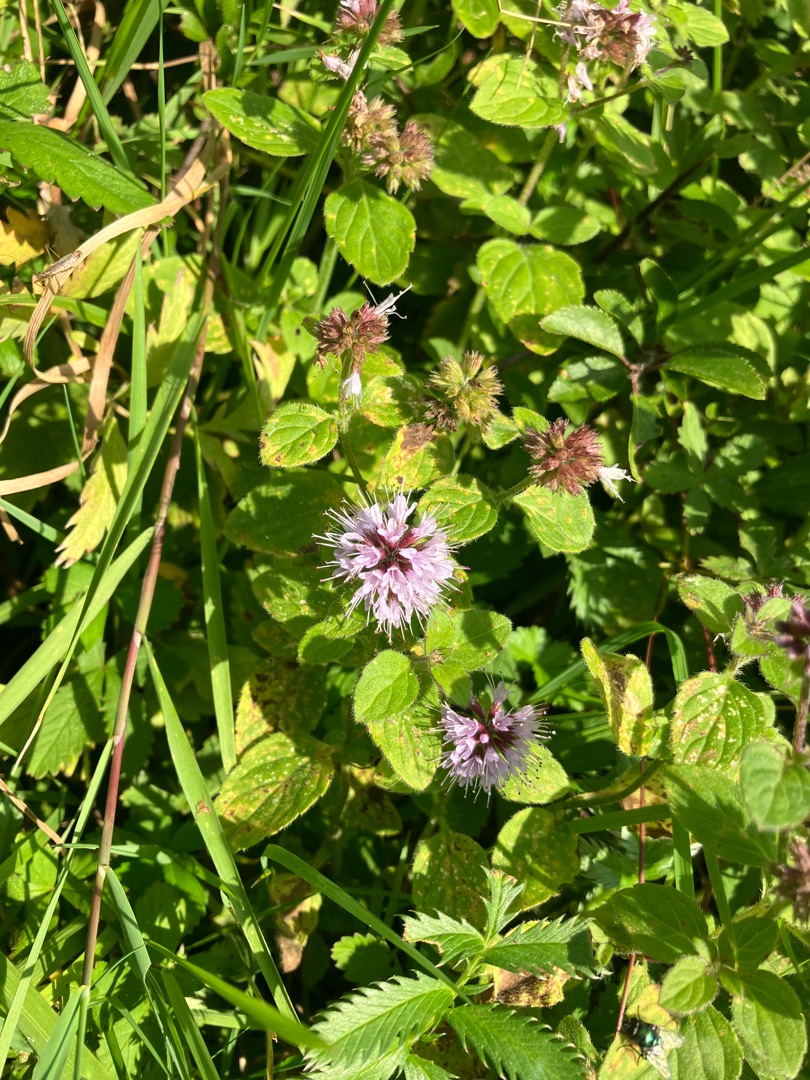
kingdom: Plantae
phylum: Tracheophyta
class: Magnoliopsida
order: Lamiales
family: Lamiaceae
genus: Mentha
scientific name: Mentha aquatica
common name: Vand-mynte
